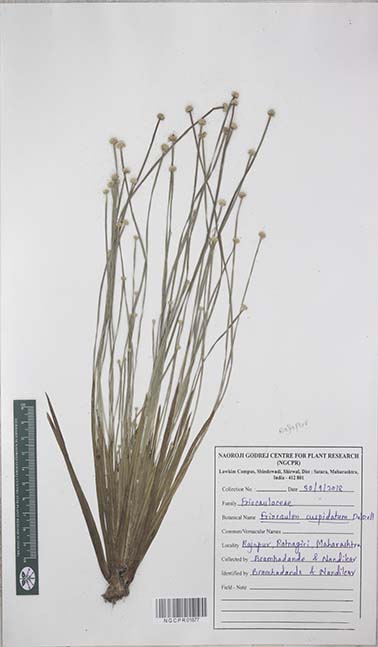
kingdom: Plantae
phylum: Tracheophyta
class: Liliopsida
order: Poales
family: Eriocaulaceae
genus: Eriocaulon
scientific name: Eriocaulon cuspidatum
